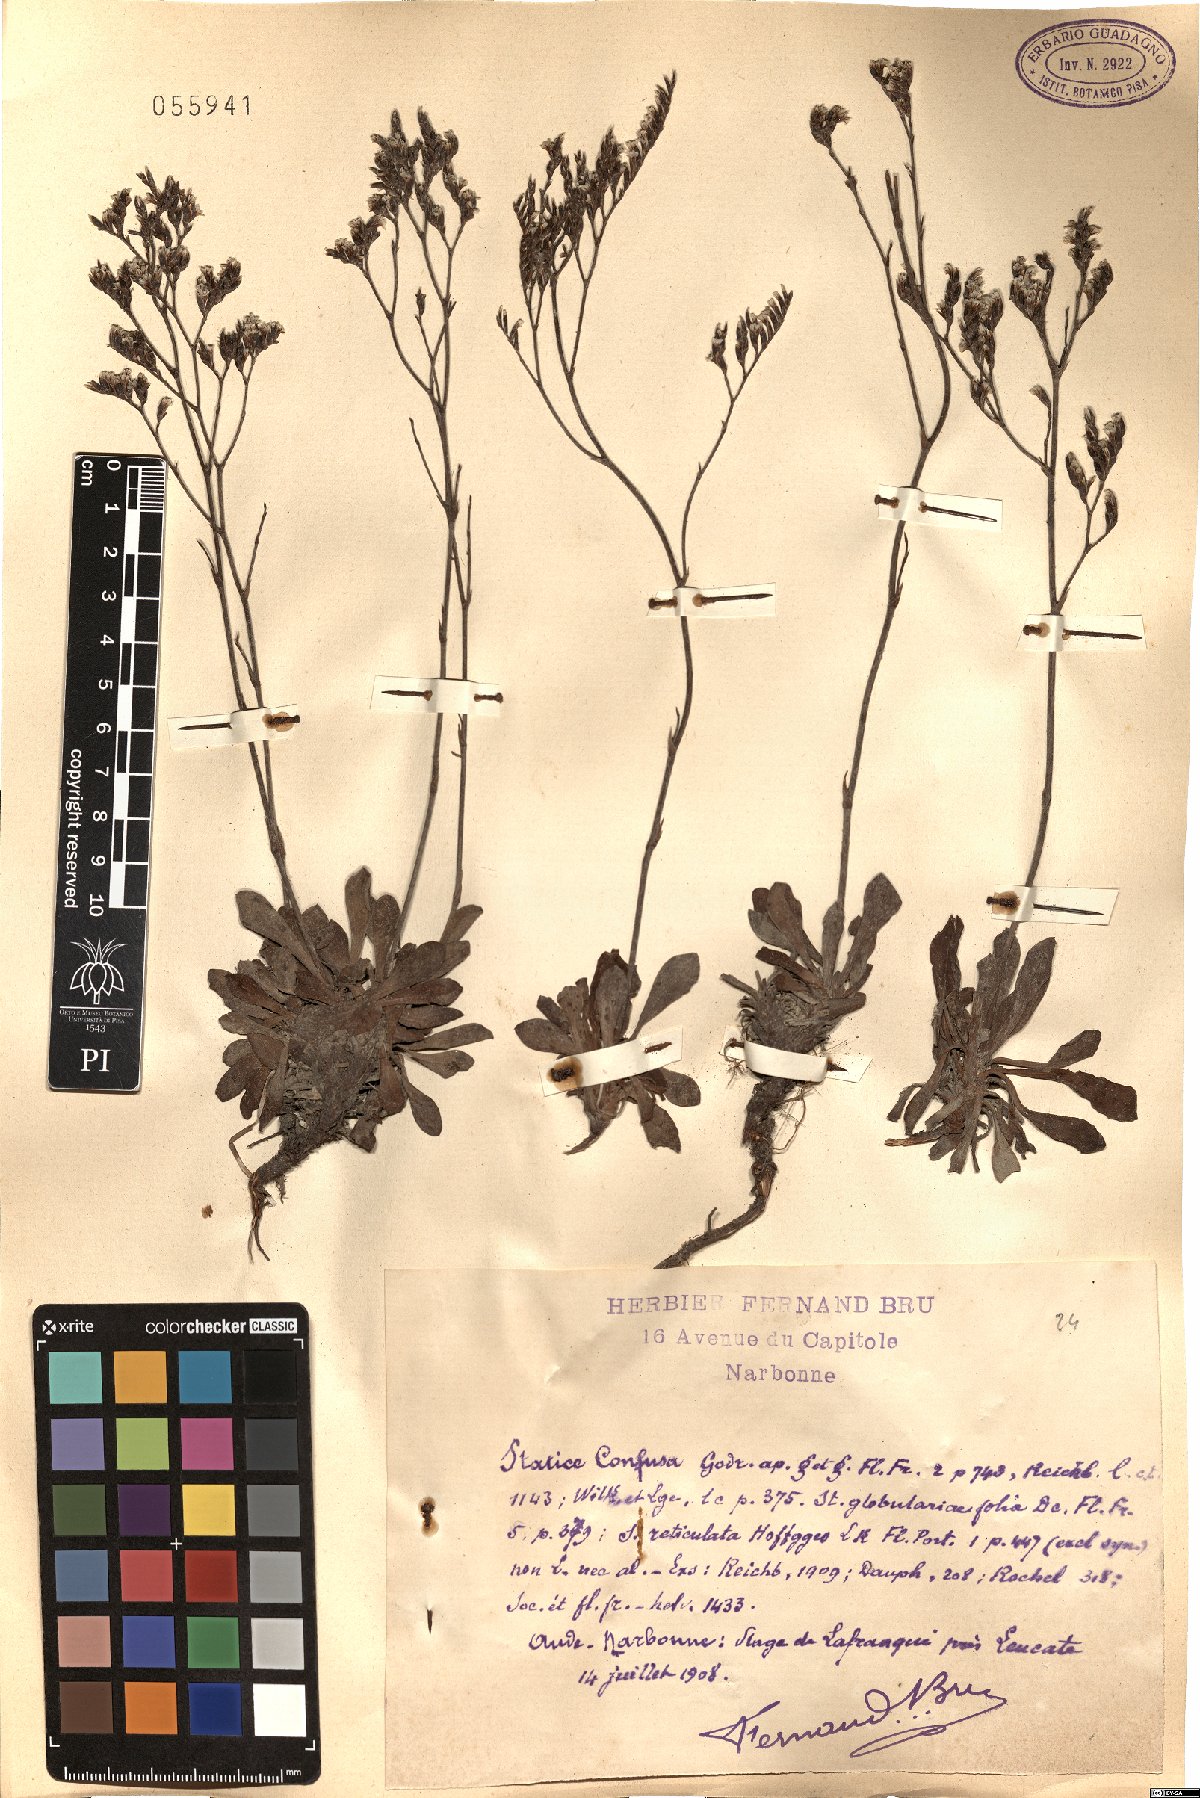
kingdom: Plantae
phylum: Tracheophyta
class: Magnoliopsida
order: Caryophyllales
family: Plumbaginaceae
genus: Limonium
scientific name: Limonium confusum
